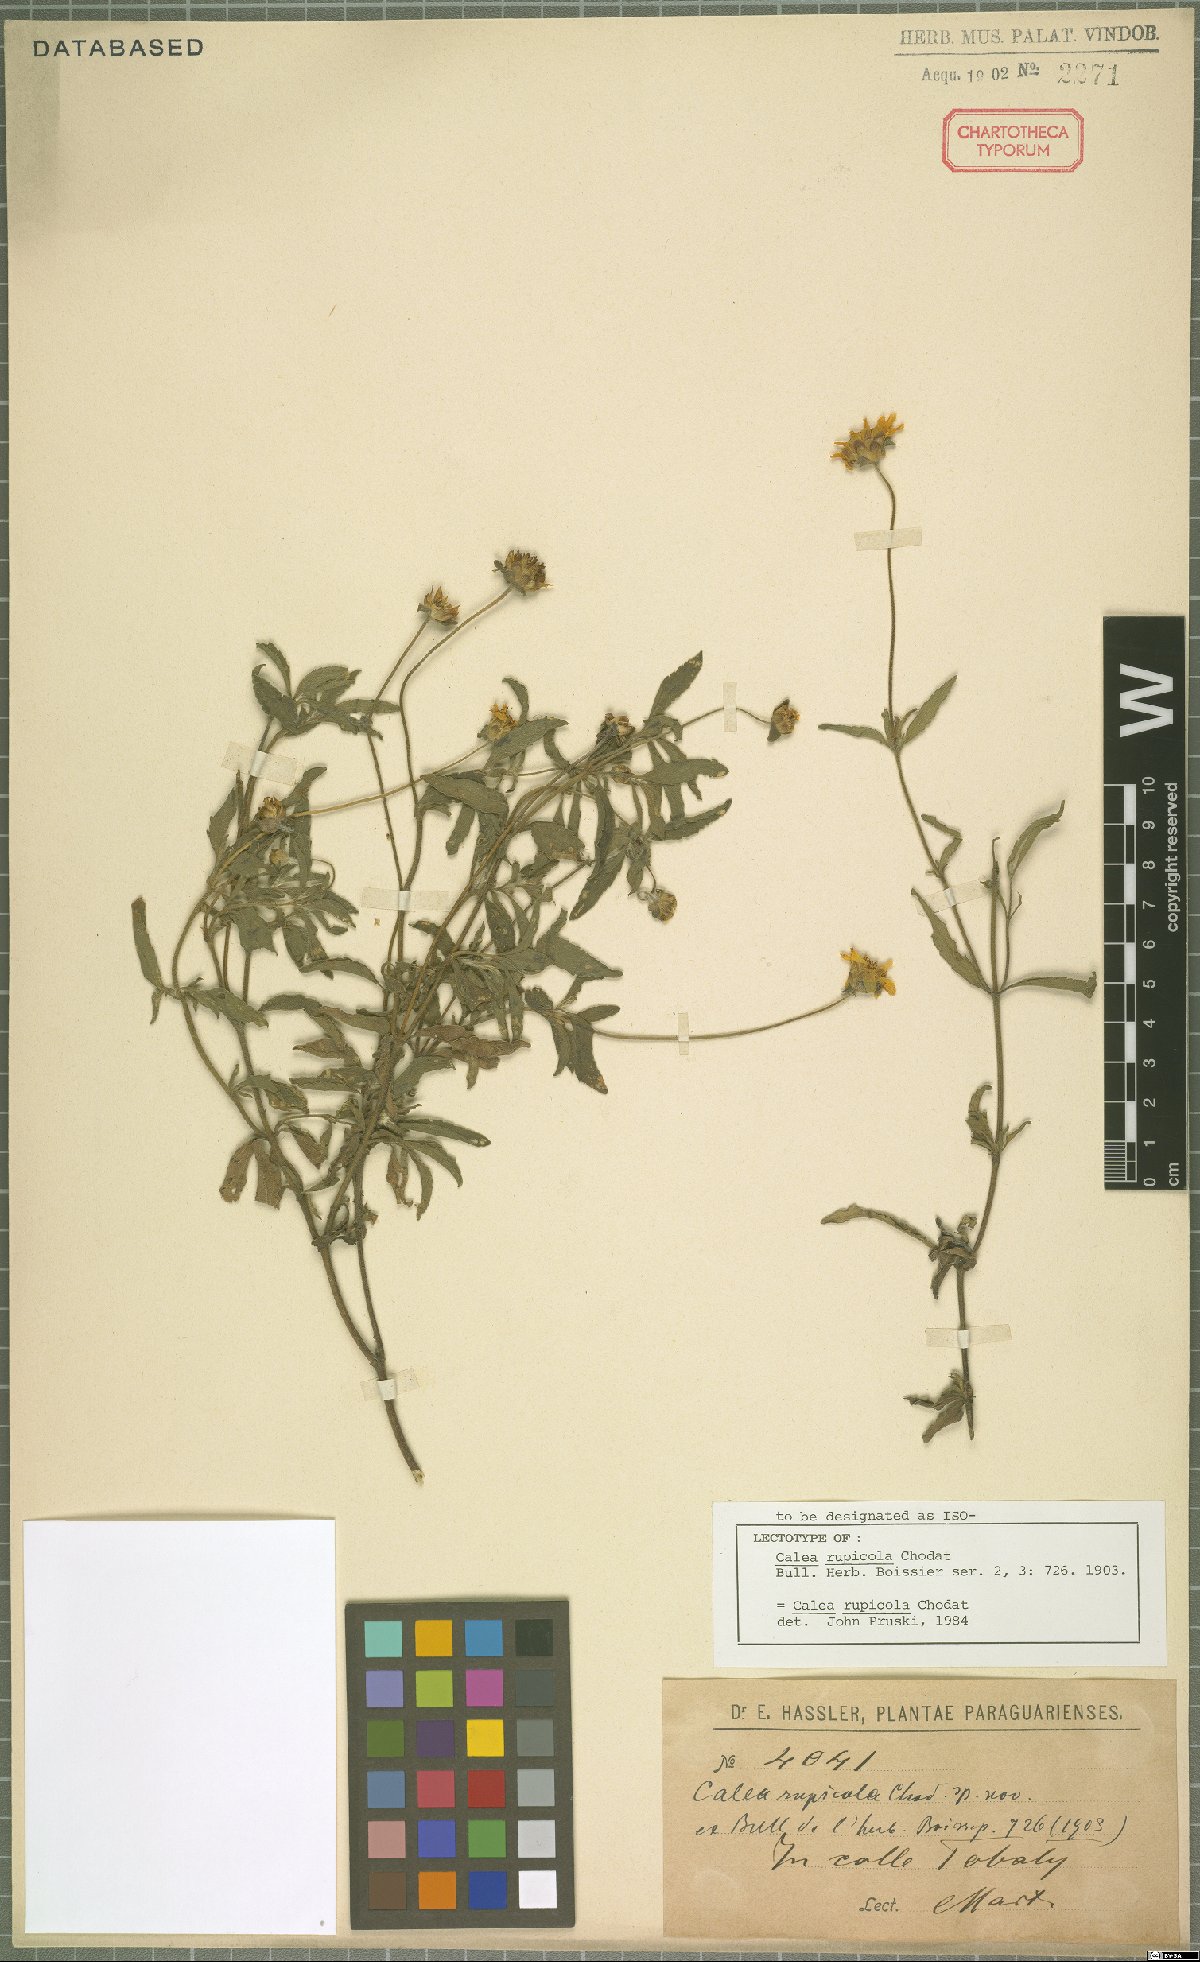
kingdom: Plantae
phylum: Tracheophyta
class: Magnoliopsida
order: Asterales
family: Asteraceae
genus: Calea
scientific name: Calea rupicola
